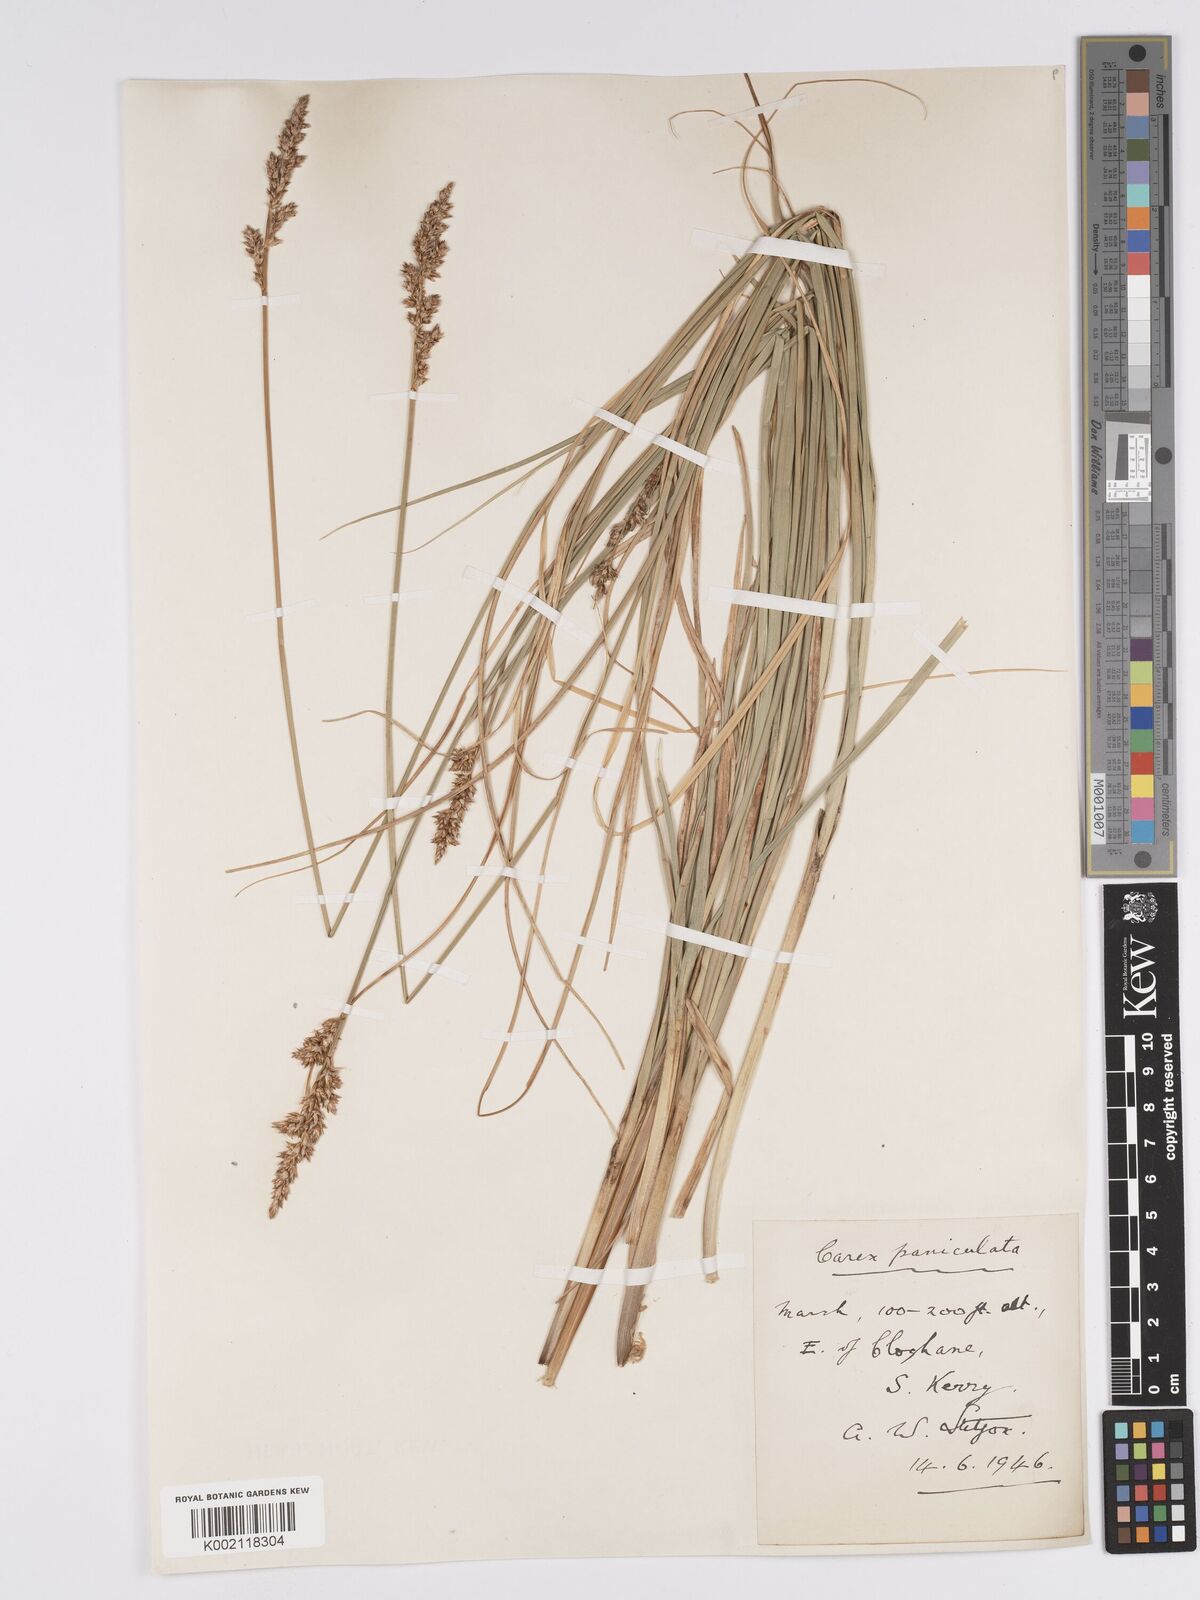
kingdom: Plantae
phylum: Tracheophyta
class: Liliopsida
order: Poales
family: Cyperaceae
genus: Carex
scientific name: Carex paniculata
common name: Greater tussock-sedge
